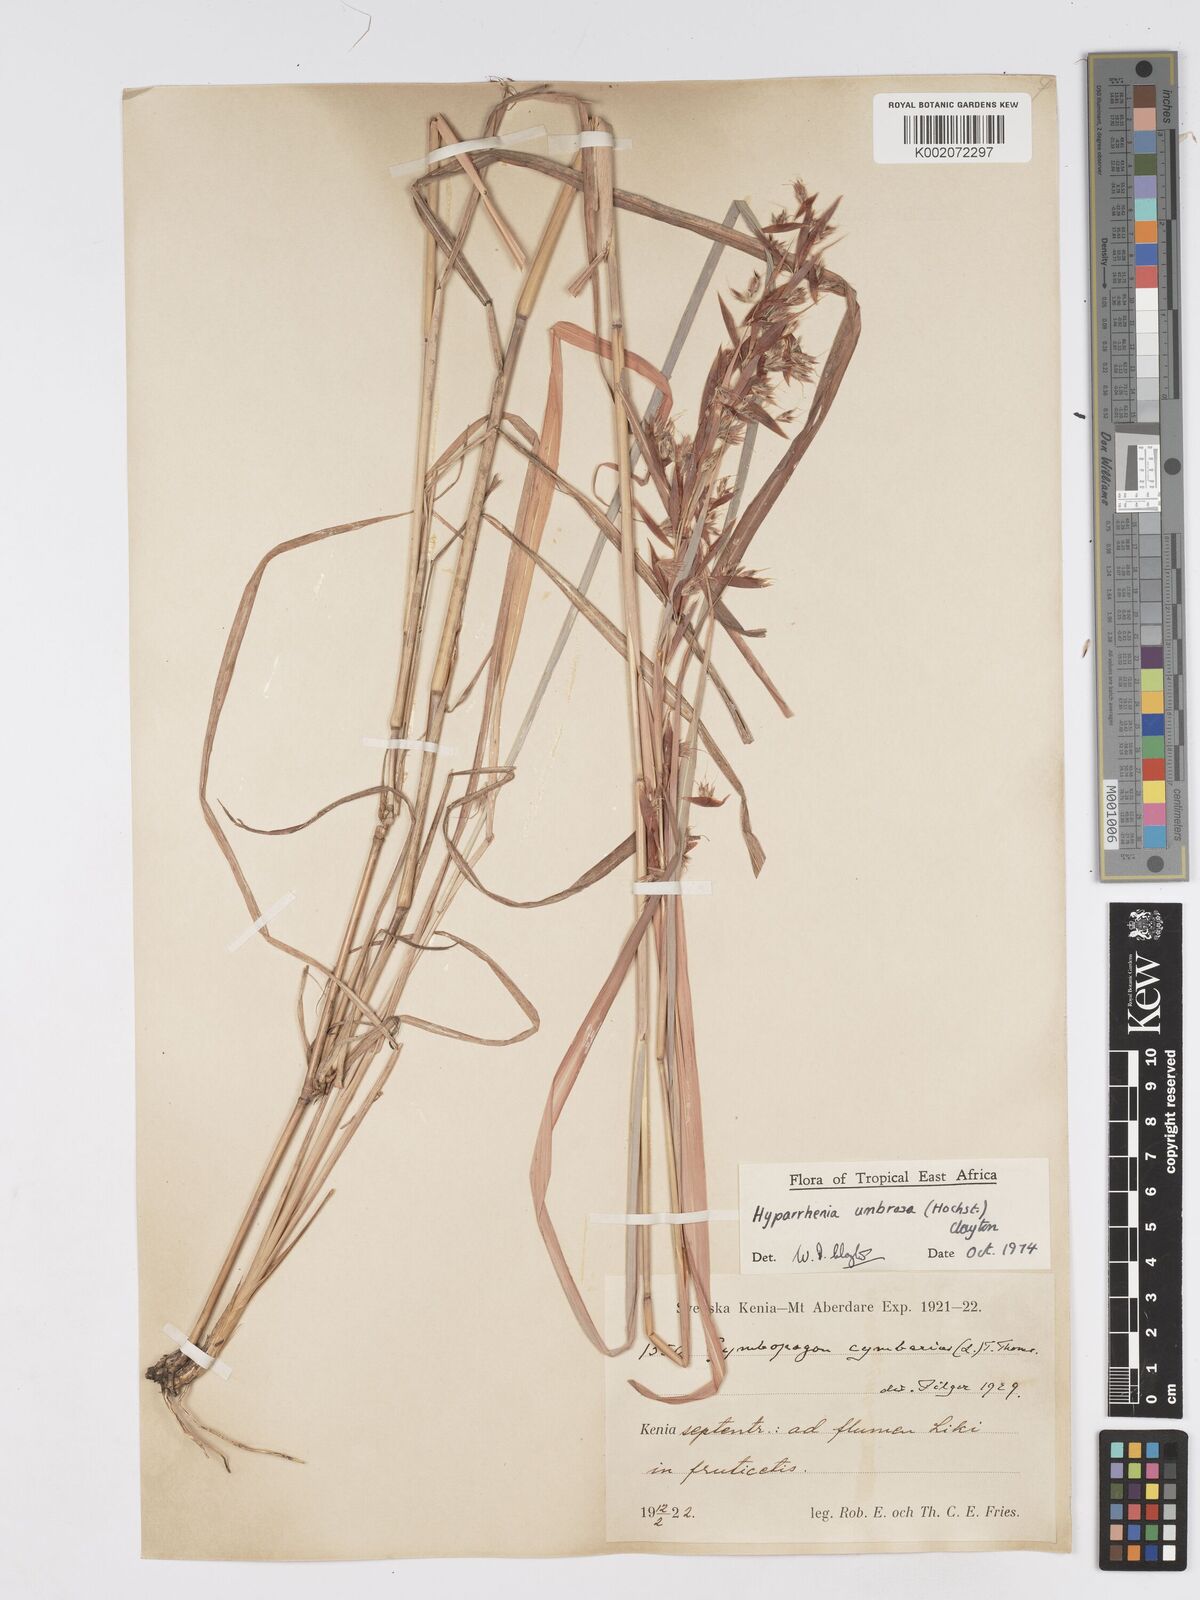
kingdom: Plantae
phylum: Tracheophyta
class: Liliopsida
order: Poales
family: Poaceae
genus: Hyparrhenia
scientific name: Hyparrhenia umbrosa
